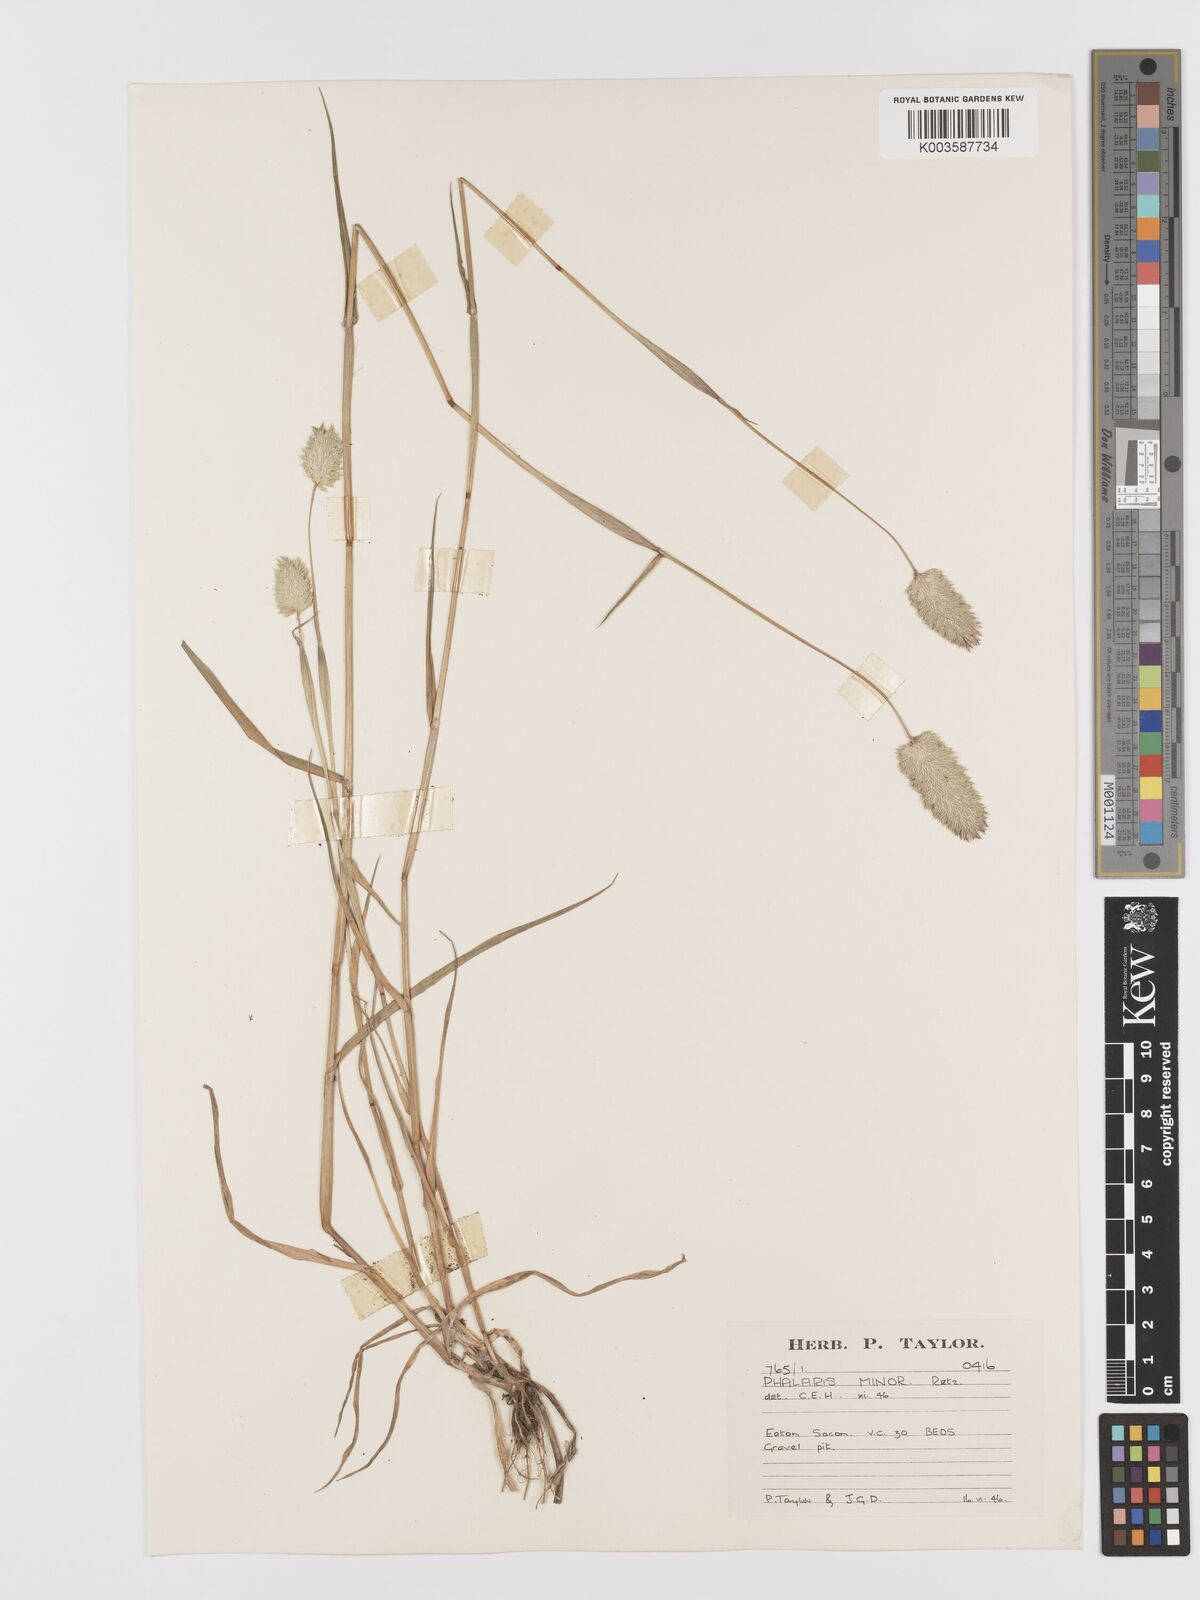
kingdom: Plantae
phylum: Tracheophyta
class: Liliopsida
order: Poales
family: Poaceae
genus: Phalaris
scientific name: Phalaris minor
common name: Littleseed canarygrass
